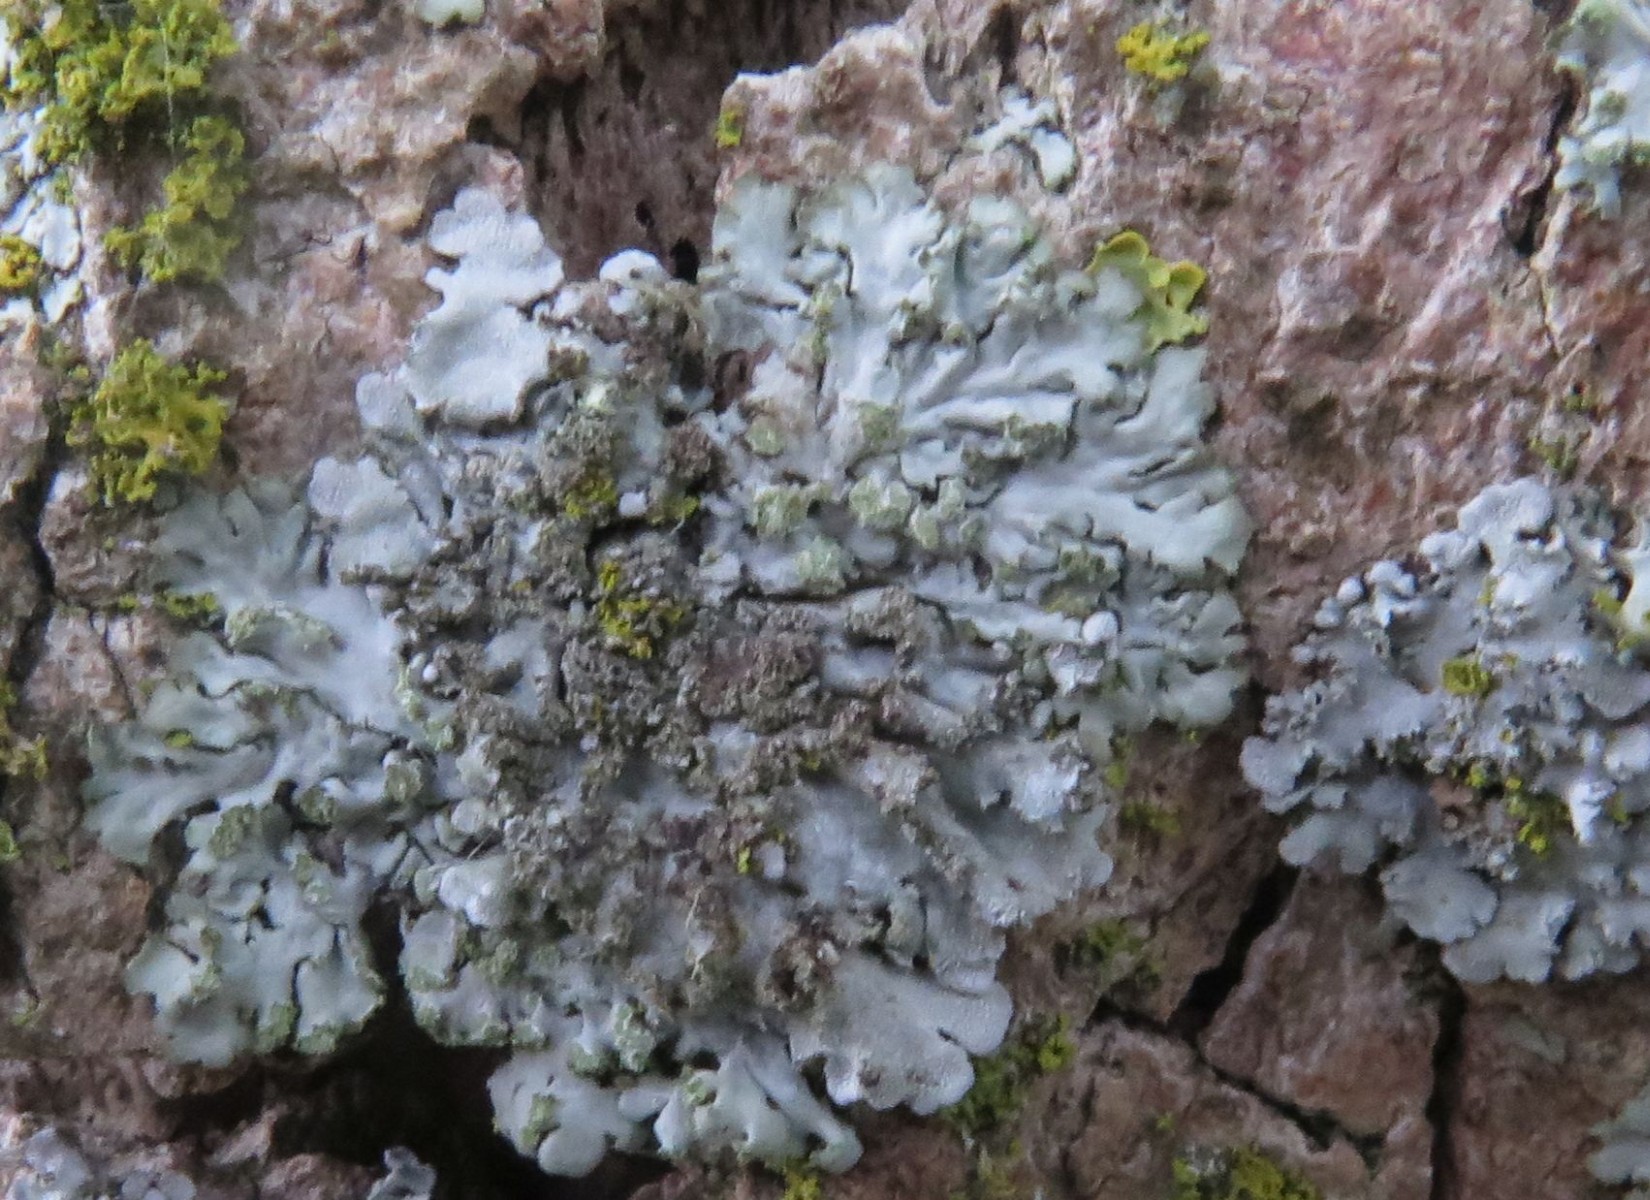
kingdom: Fungi
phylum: Ascomycota
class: Lecanoromycetes
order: Caliciales
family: Physciaceae
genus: Phaeophyscia
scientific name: Phaeophyscia orbicularis
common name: grågrøn rosetlav
